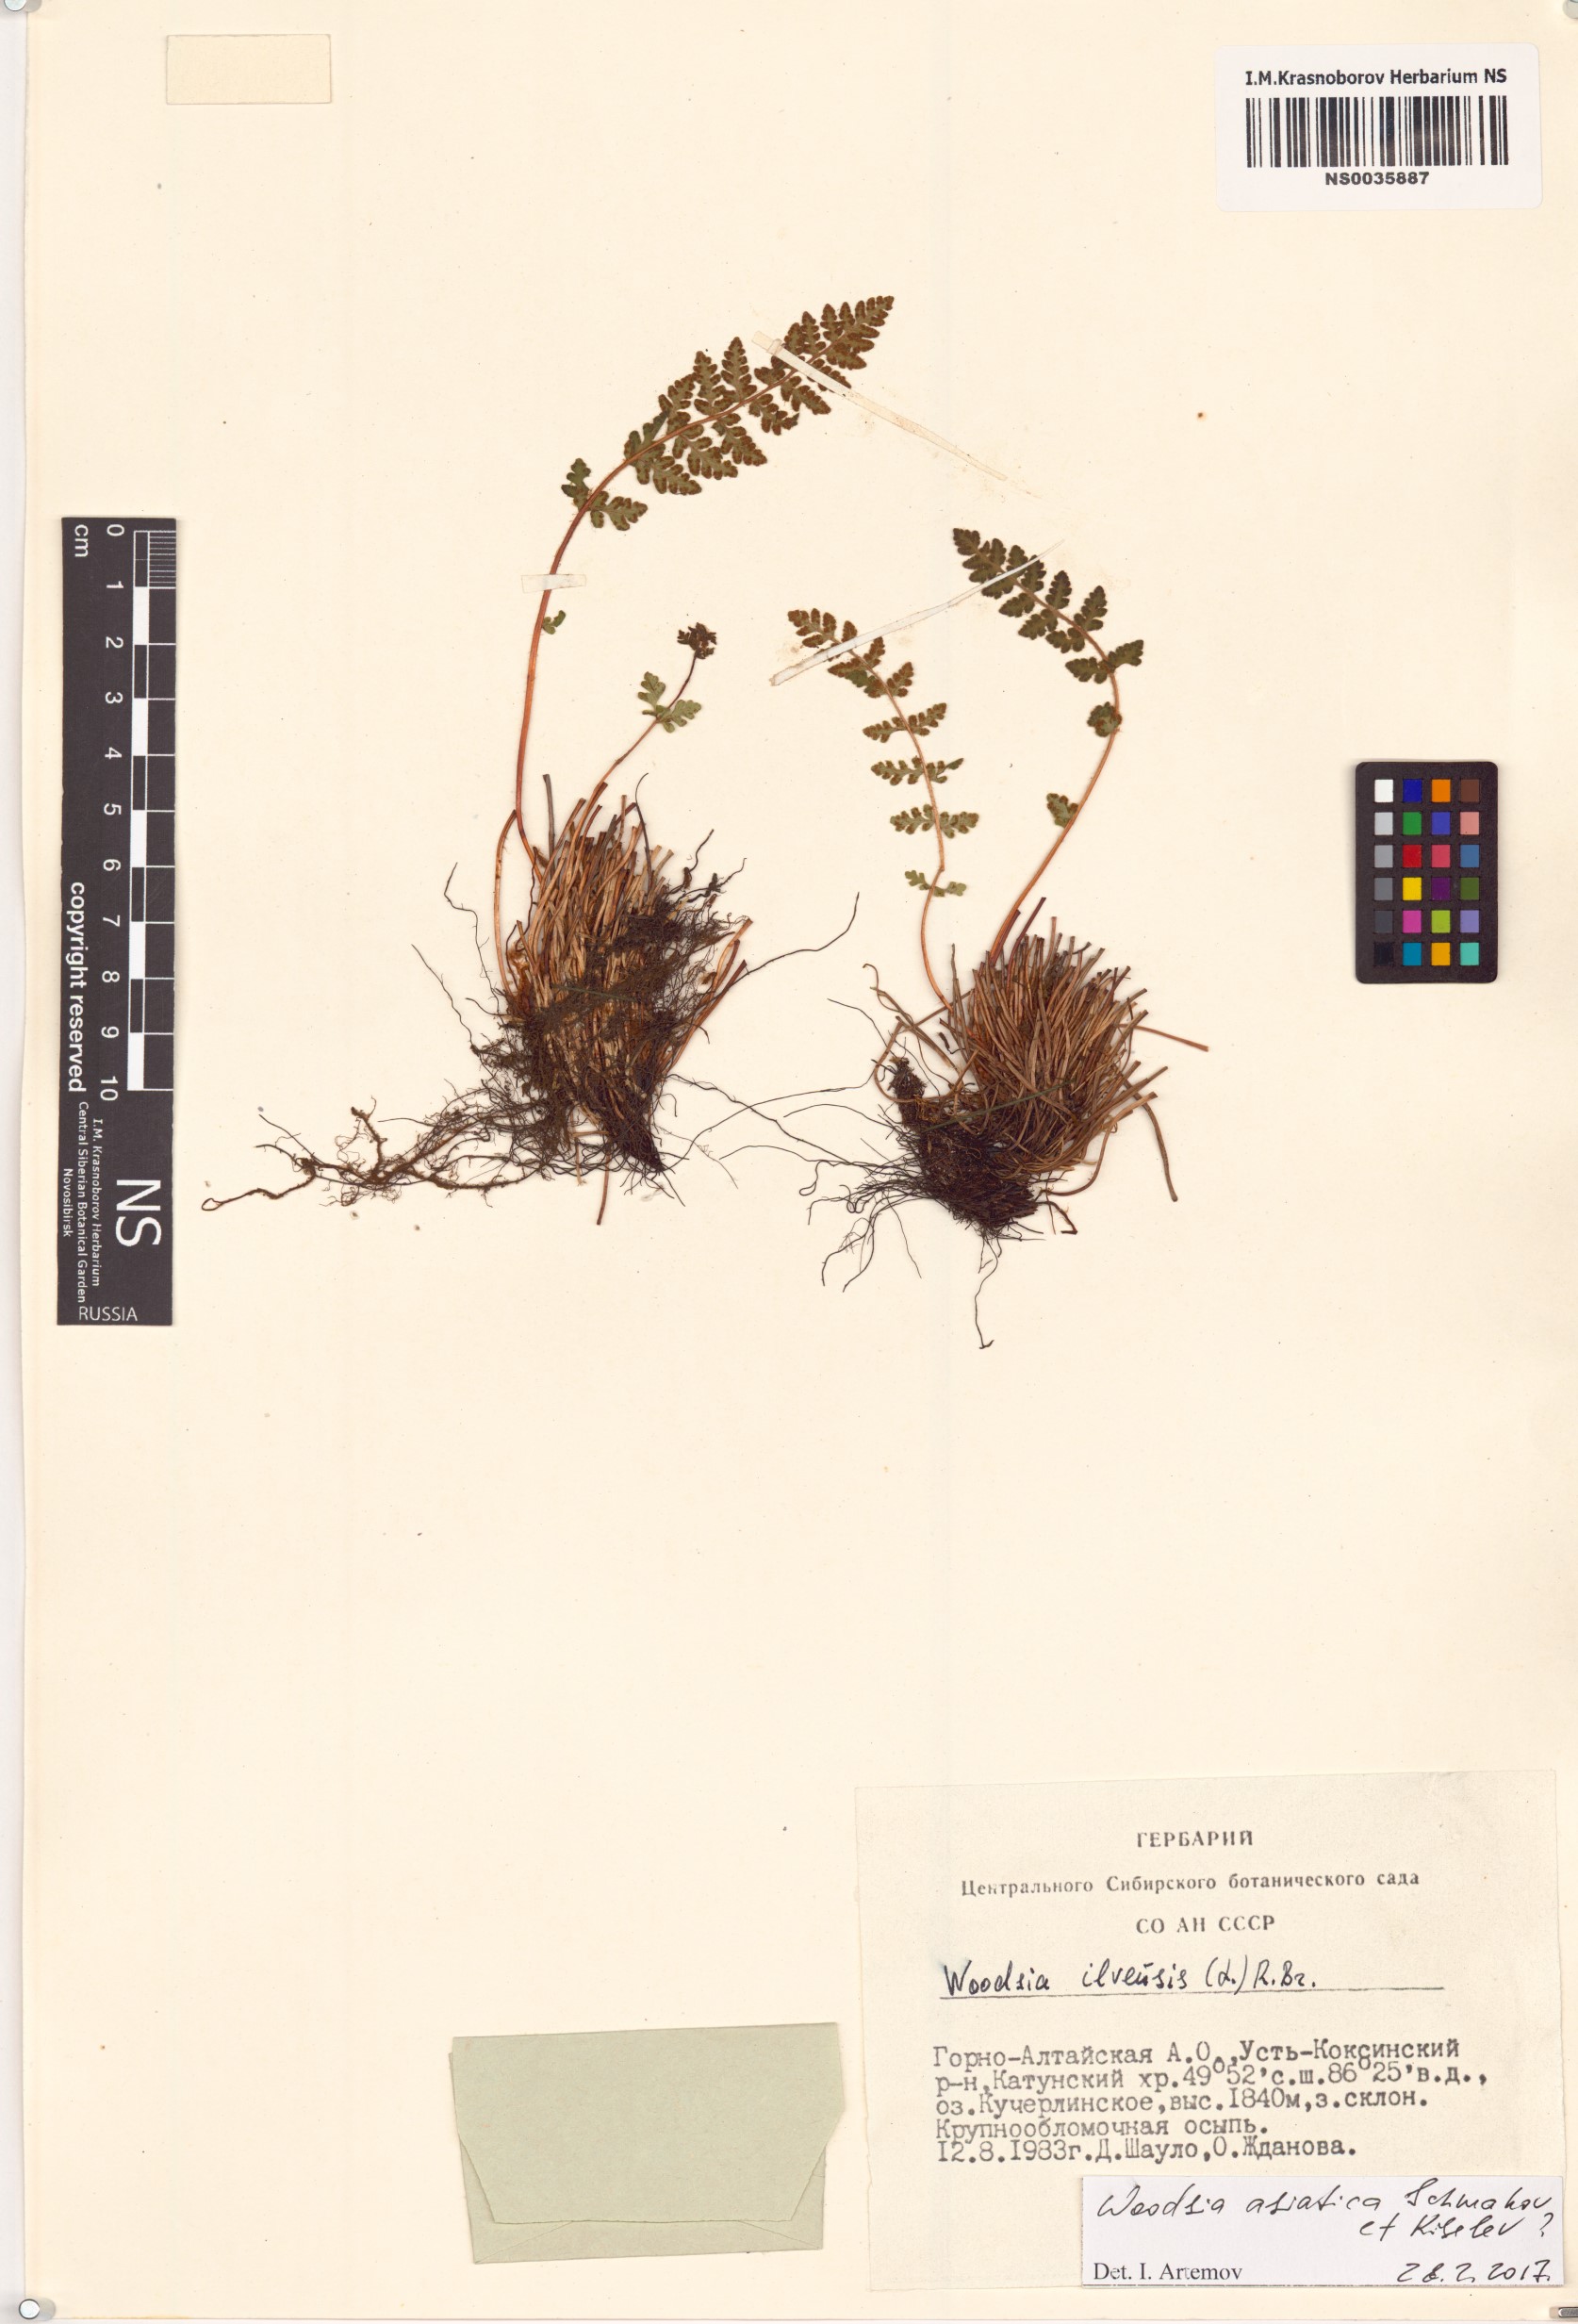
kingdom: Plantae
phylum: Tracheophyta
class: Polypodiopsida
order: Polypodiales
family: Woodsiaceae
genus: Woodsia
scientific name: Woodsia asiatica
